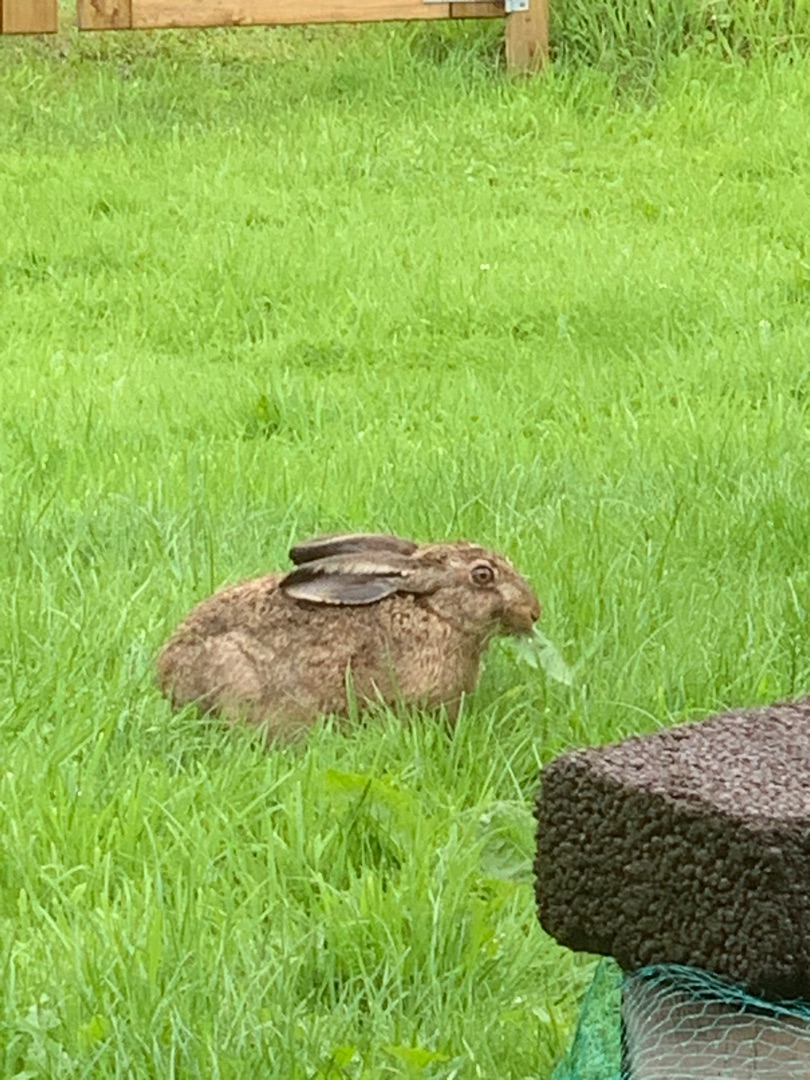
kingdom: Animalia
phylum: Chordata
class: Mammalia
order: Lagomorpha
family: Leporidae
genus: Lepus
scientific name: Lepus europaeus
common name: Hare
